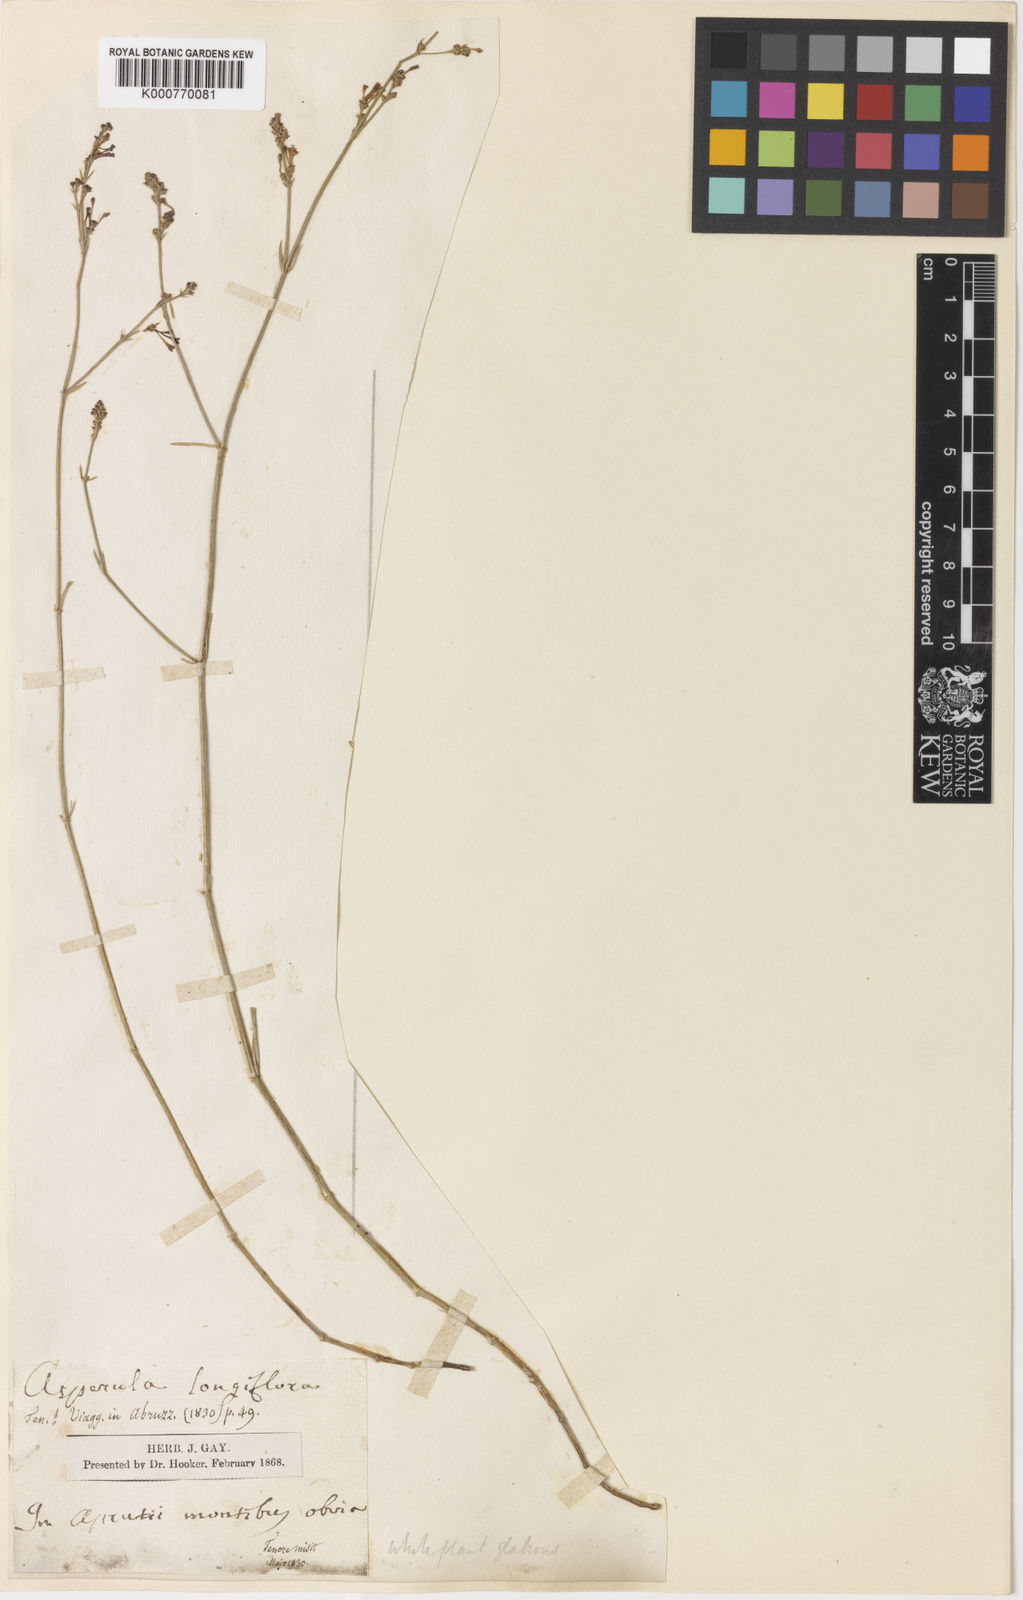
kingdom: Plantae
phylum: Tracheophyta
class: Magnoliopsida
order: Gentianales
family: Rubiaceae
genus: Cynanchica
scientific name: Cynanchica aristata
